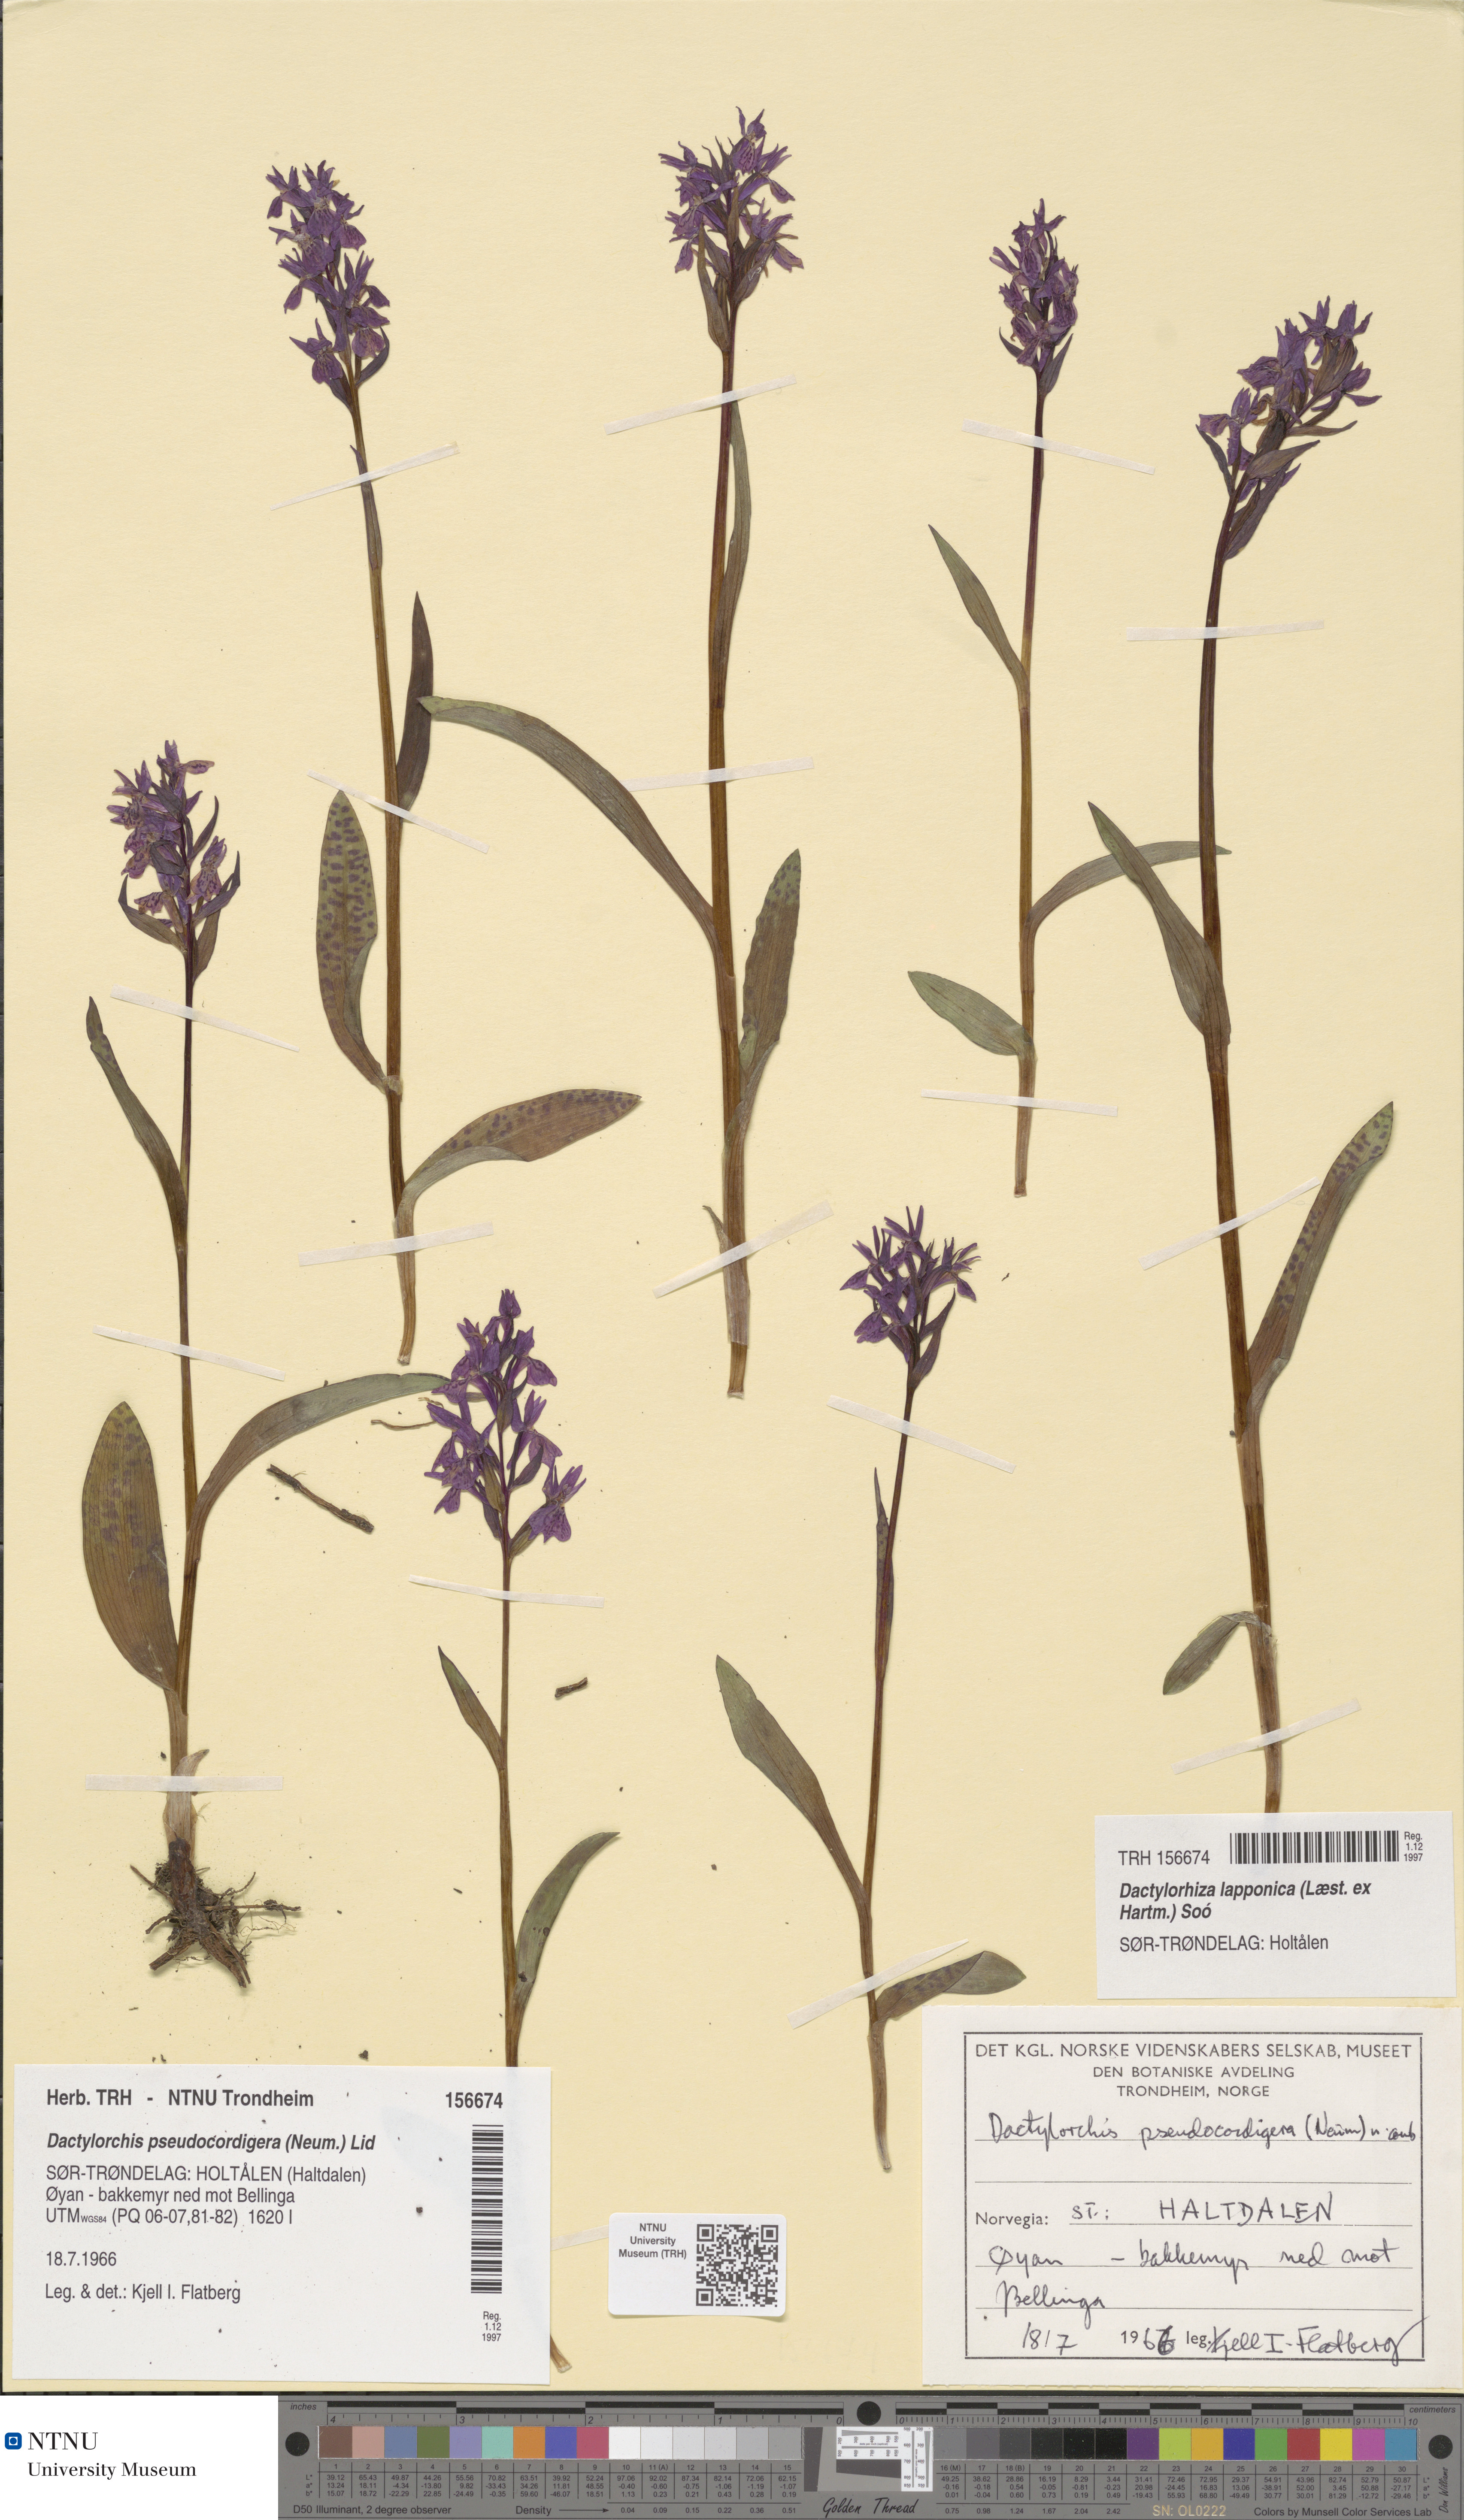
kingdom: Plantae
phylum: Tracheophyta
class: Liliopsida
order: Asparagales
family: Orchidaceae
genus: Dactylorhiza
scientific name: Dactylorhiza majalis
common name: Marsh orchid
